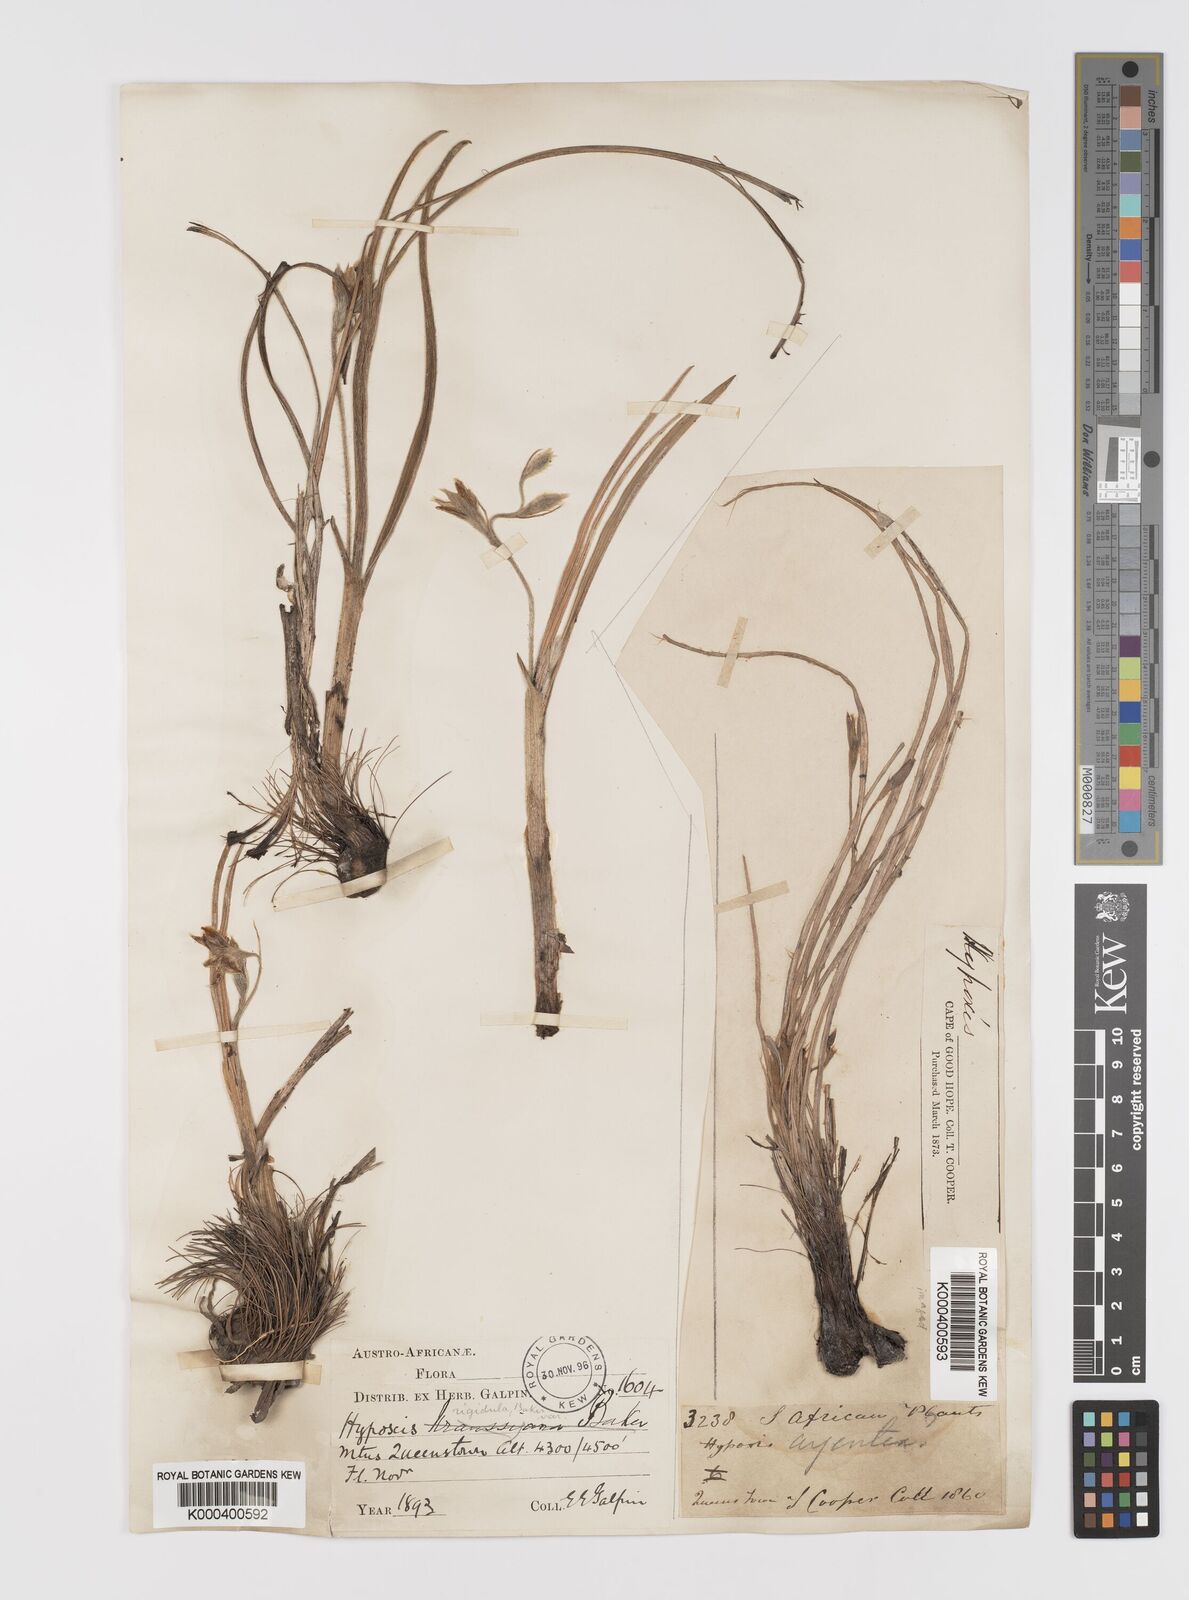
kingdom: Plantae
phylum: Tracheophyta
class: Liliopsida
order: Asparagales
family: Hypoxidaceae
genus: Hypoxis
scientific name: Hypoxis rigidula
